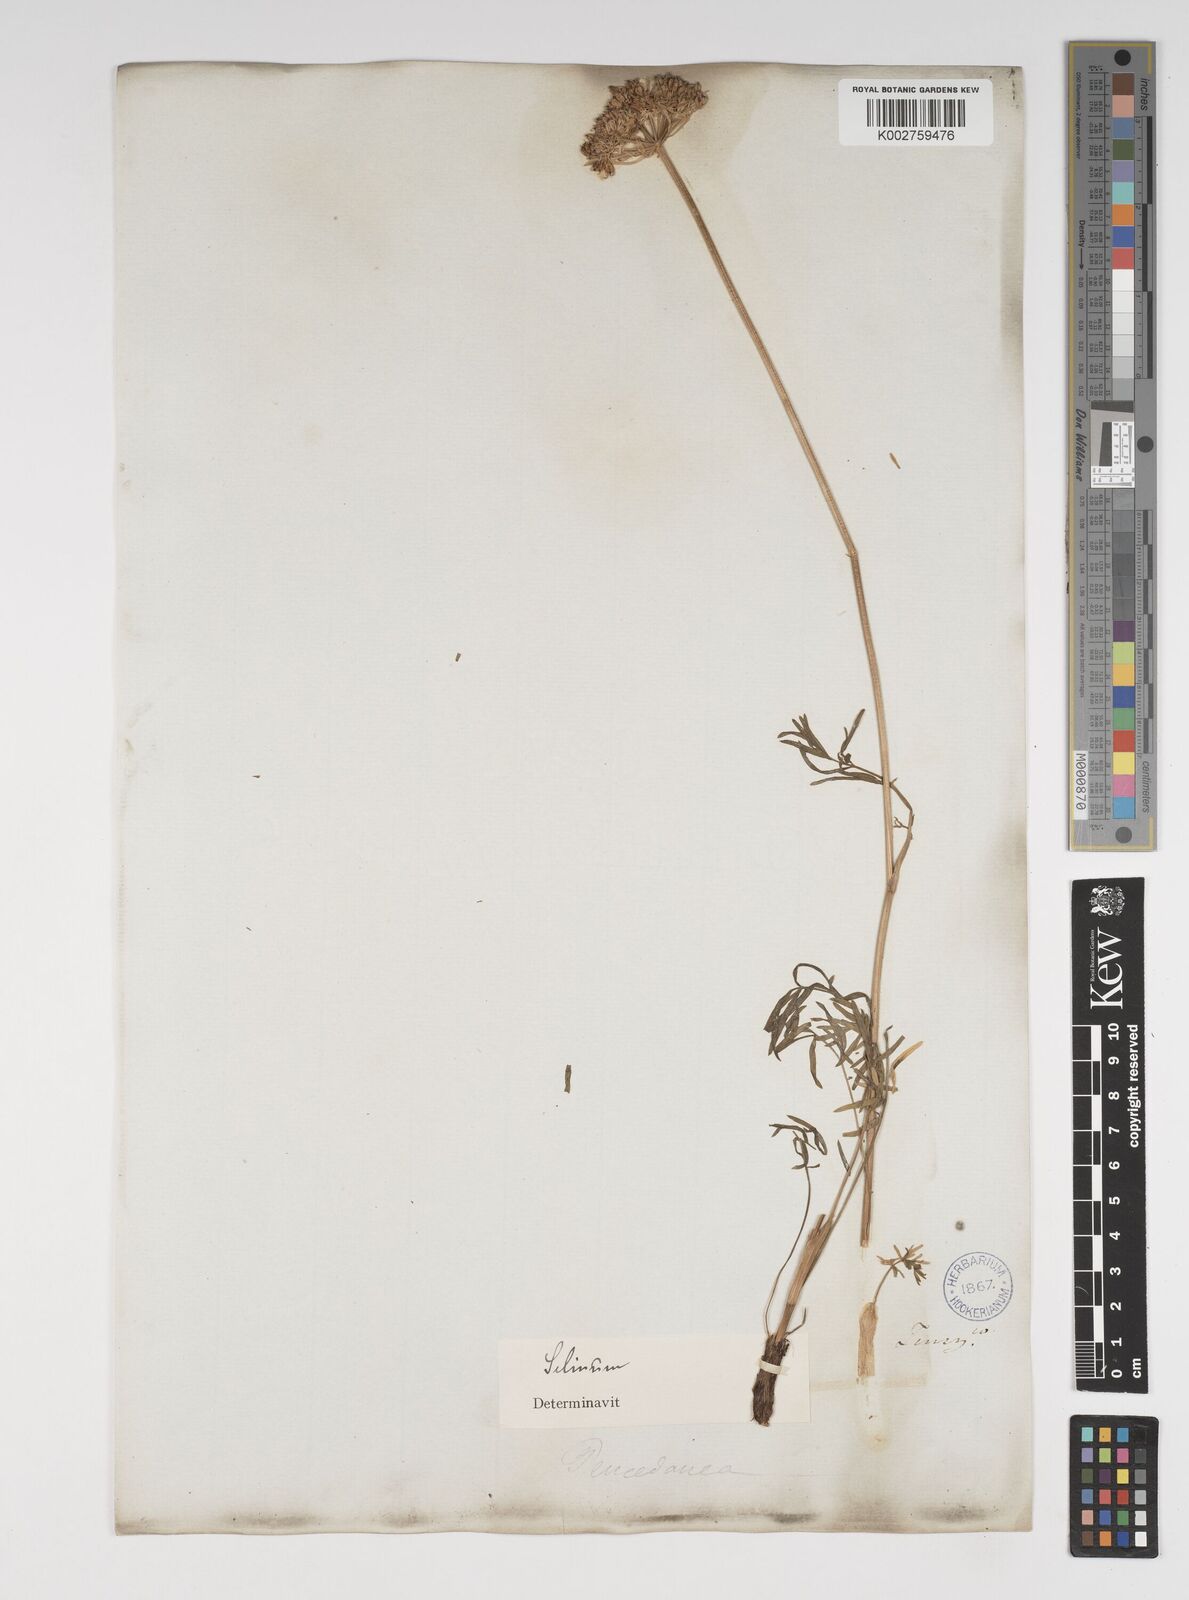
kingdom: Plantae
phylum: Tracheophyta
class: Magnoliopsida
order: Apiales
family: Apiaceae
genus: Kadenia
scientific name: Kadenia salina
